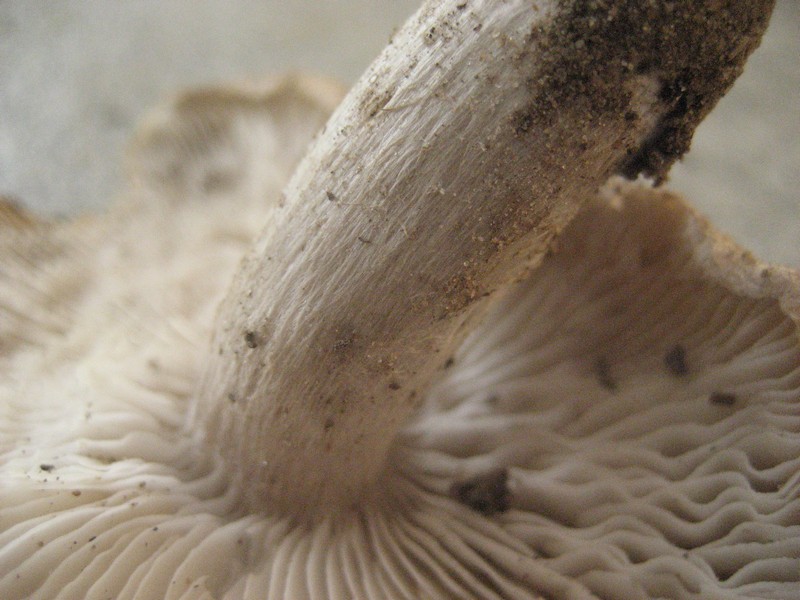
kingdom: Fungi
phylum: Basidiomycota
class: Agaricomycetes
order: Agaricales
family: Tricholomataceae
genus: Tricholoma
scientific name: Tricholoma scalpturatum
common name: gulplettet ridderhat
